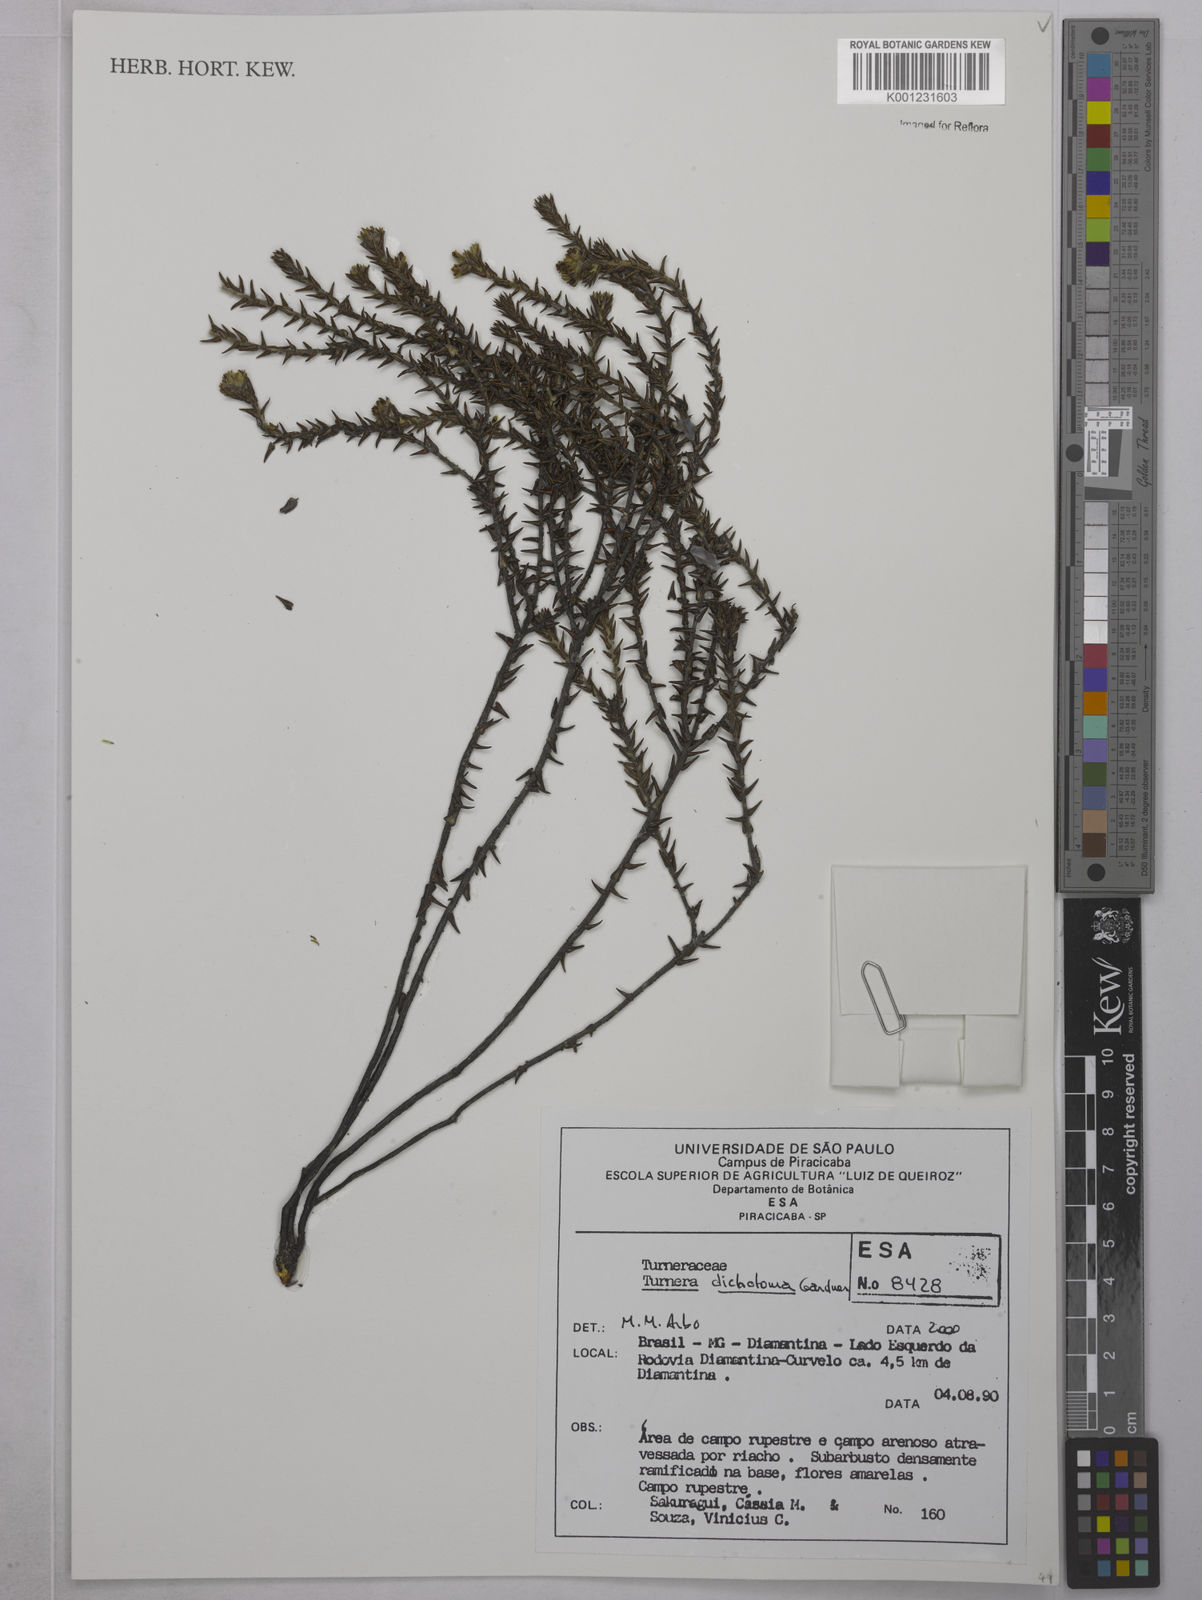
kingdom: Plantae
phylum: Tracheophyta
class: Magnoliopsida
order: Malpighiales
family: Turneraceae
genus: Turnera
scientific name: Turnera
